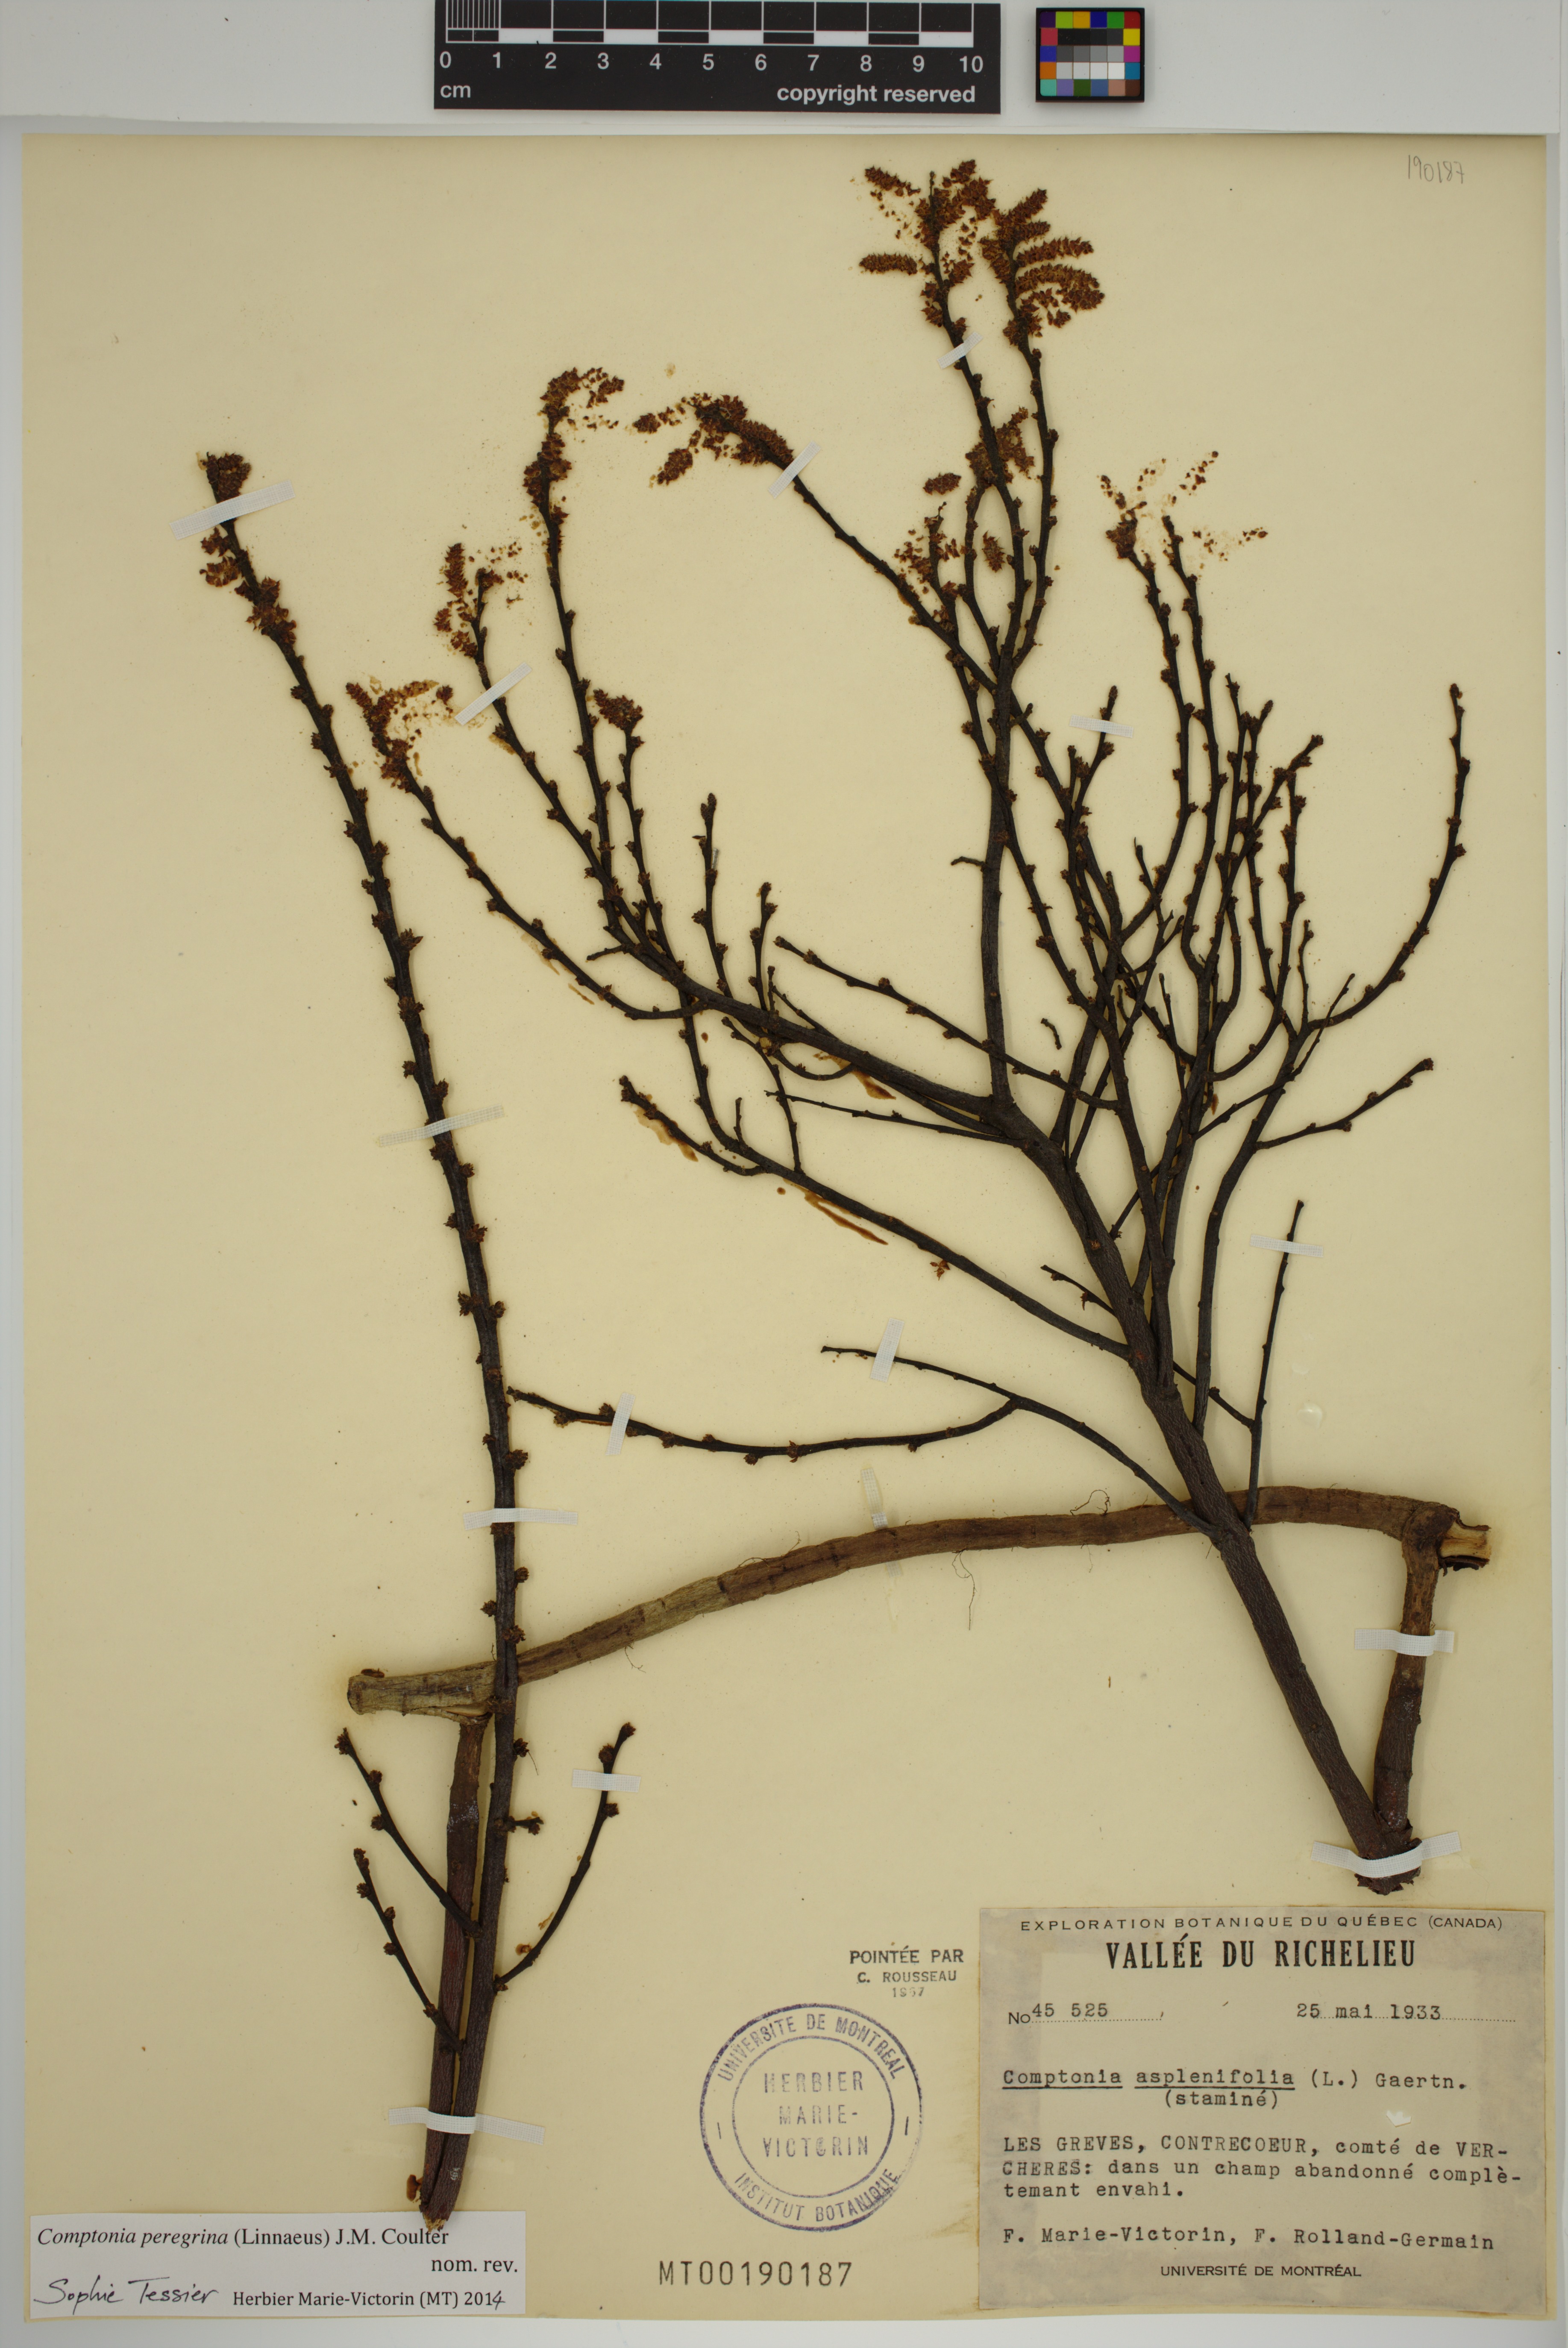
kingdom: Plantae
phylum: Tracheophyta
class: Magnoliopsida
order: Fagales
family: Myricaceae
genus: Comptonia
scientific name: Comptonia peregrina
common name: Sweet-fern
